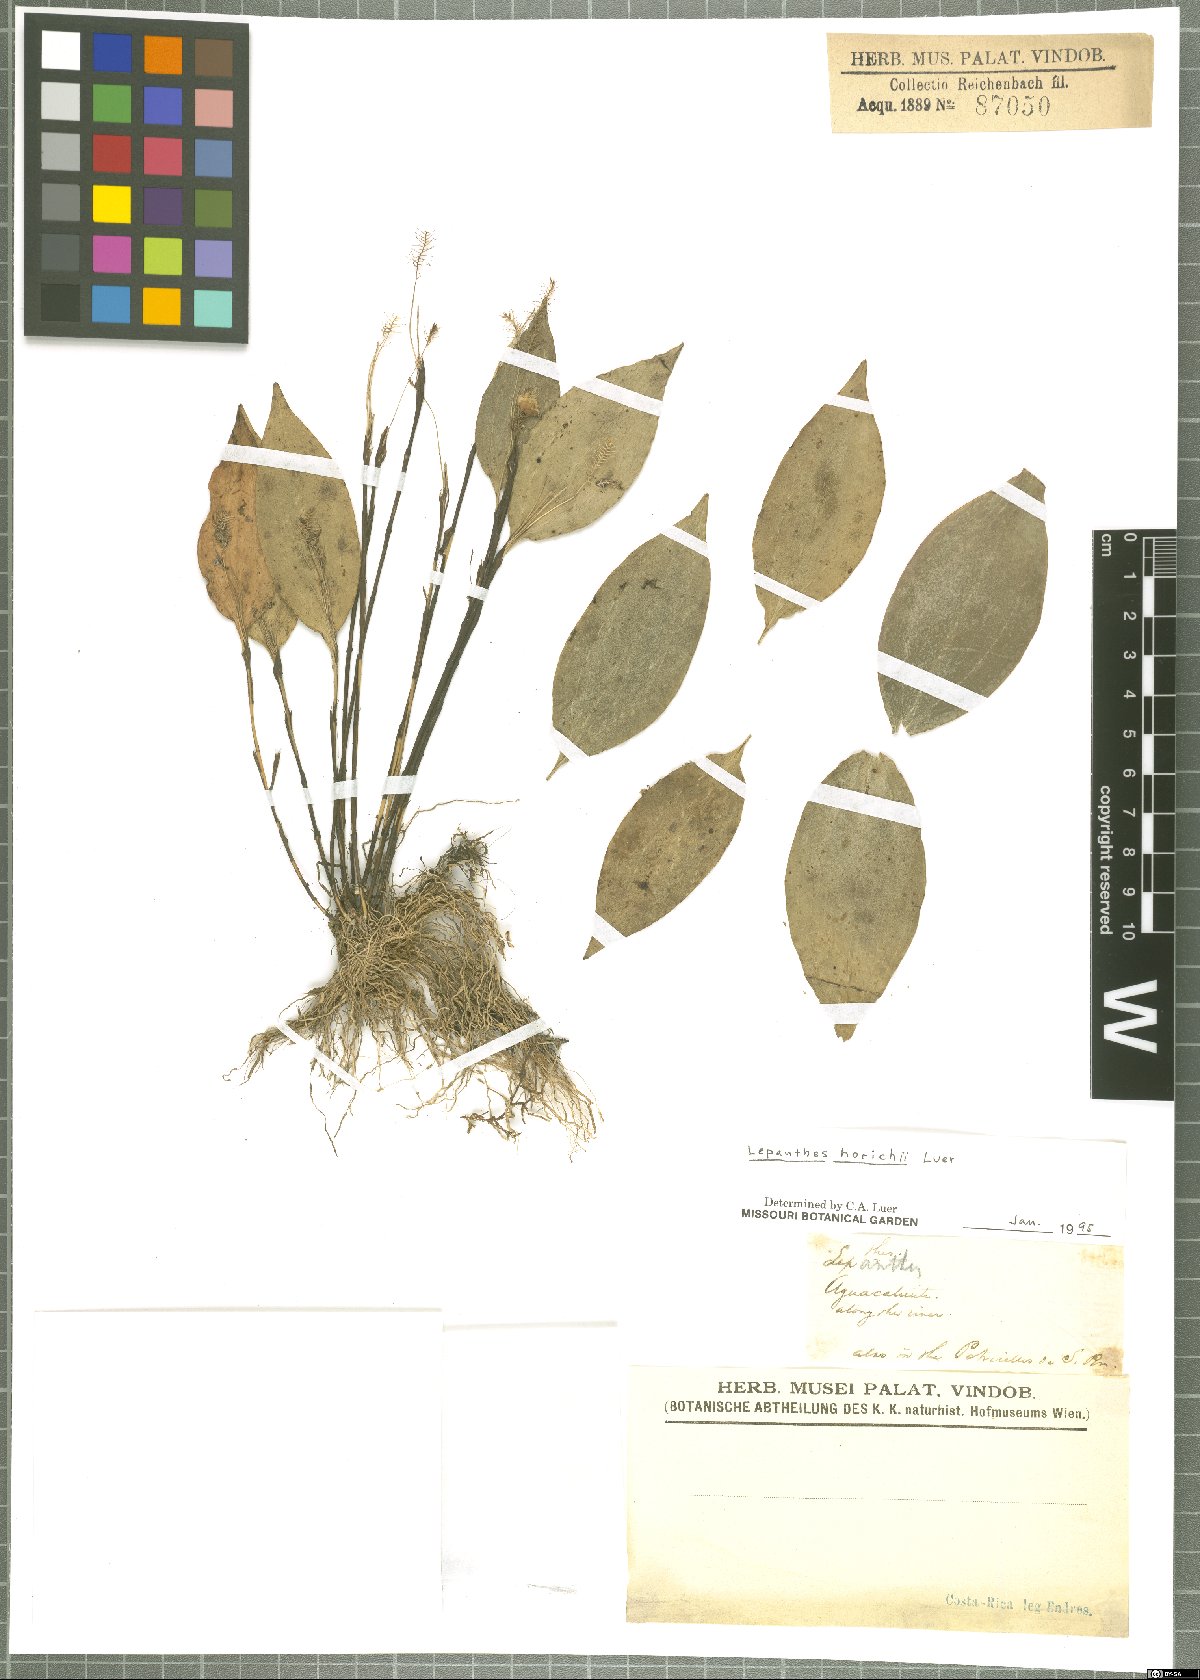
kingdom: Plantae
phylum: Tracheophyta
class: Liliopsida
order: Asparagales
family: Orchidaceae
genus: Lepanthes
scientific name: Lepanthes horichii
